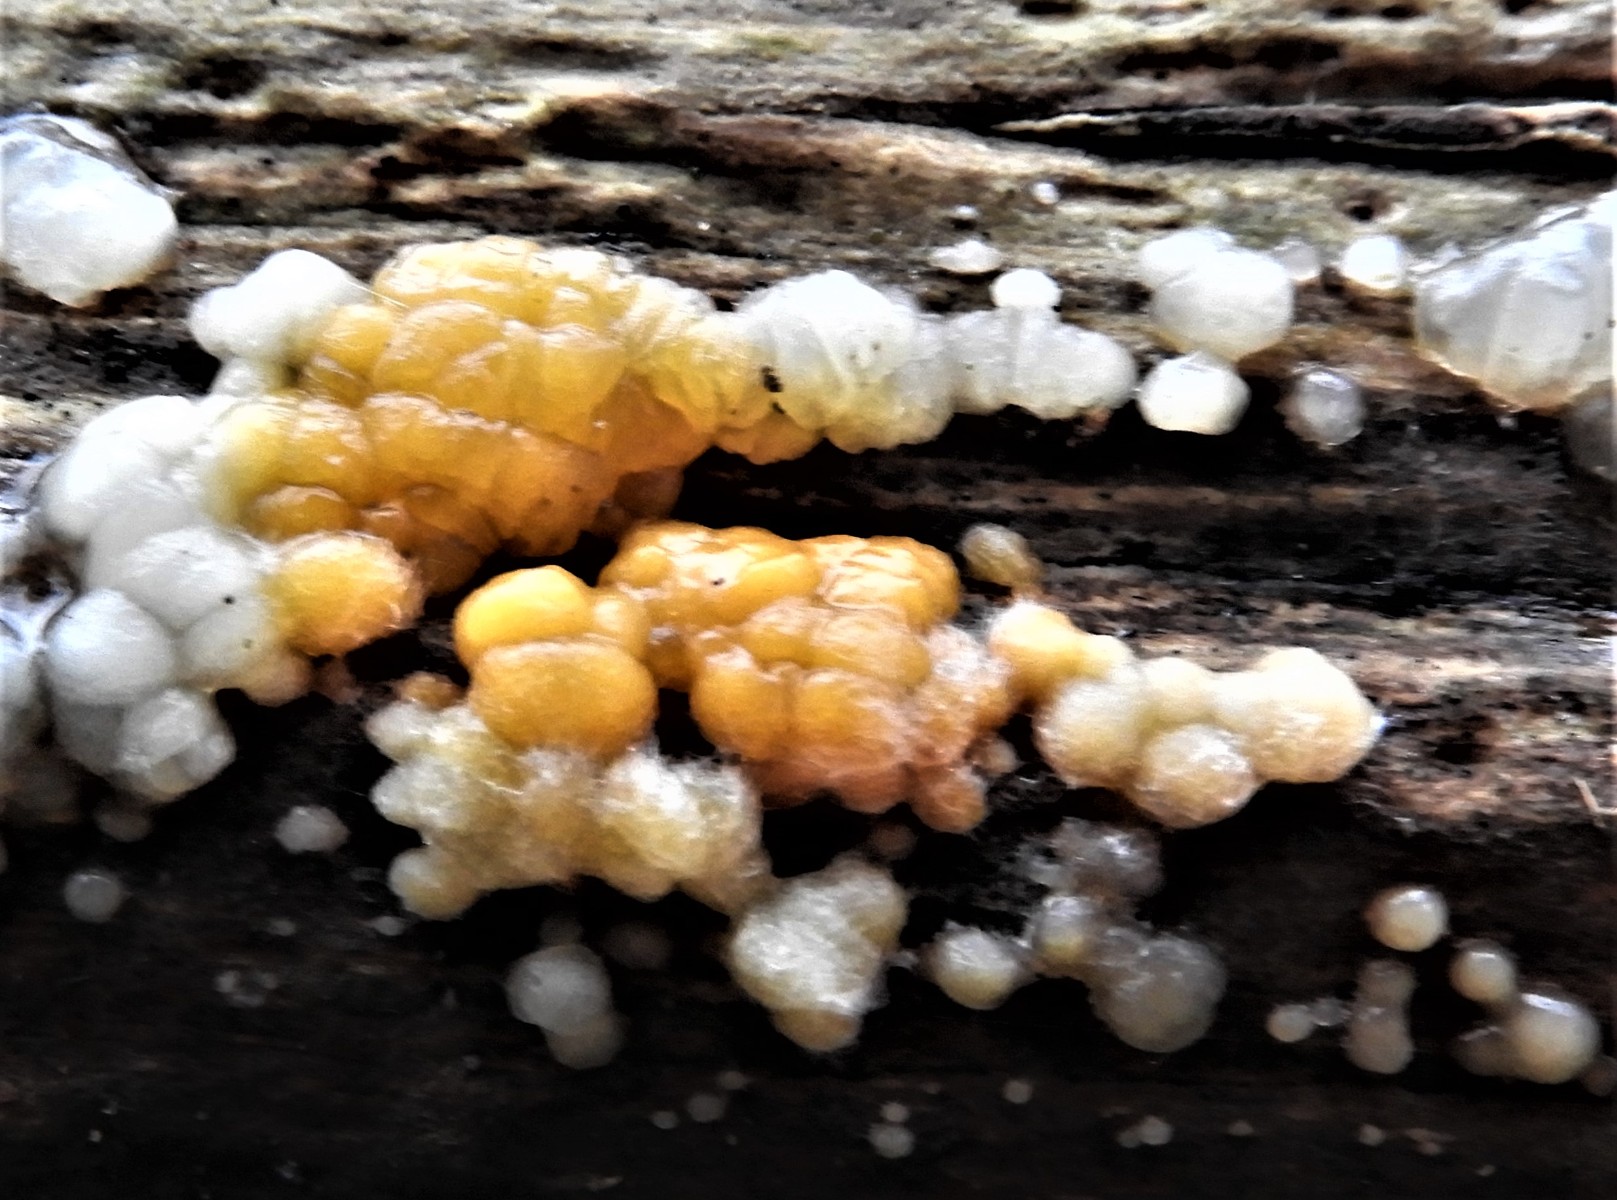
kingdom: Protozoa
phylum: Mycetozoa
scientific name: Mycetozoa
